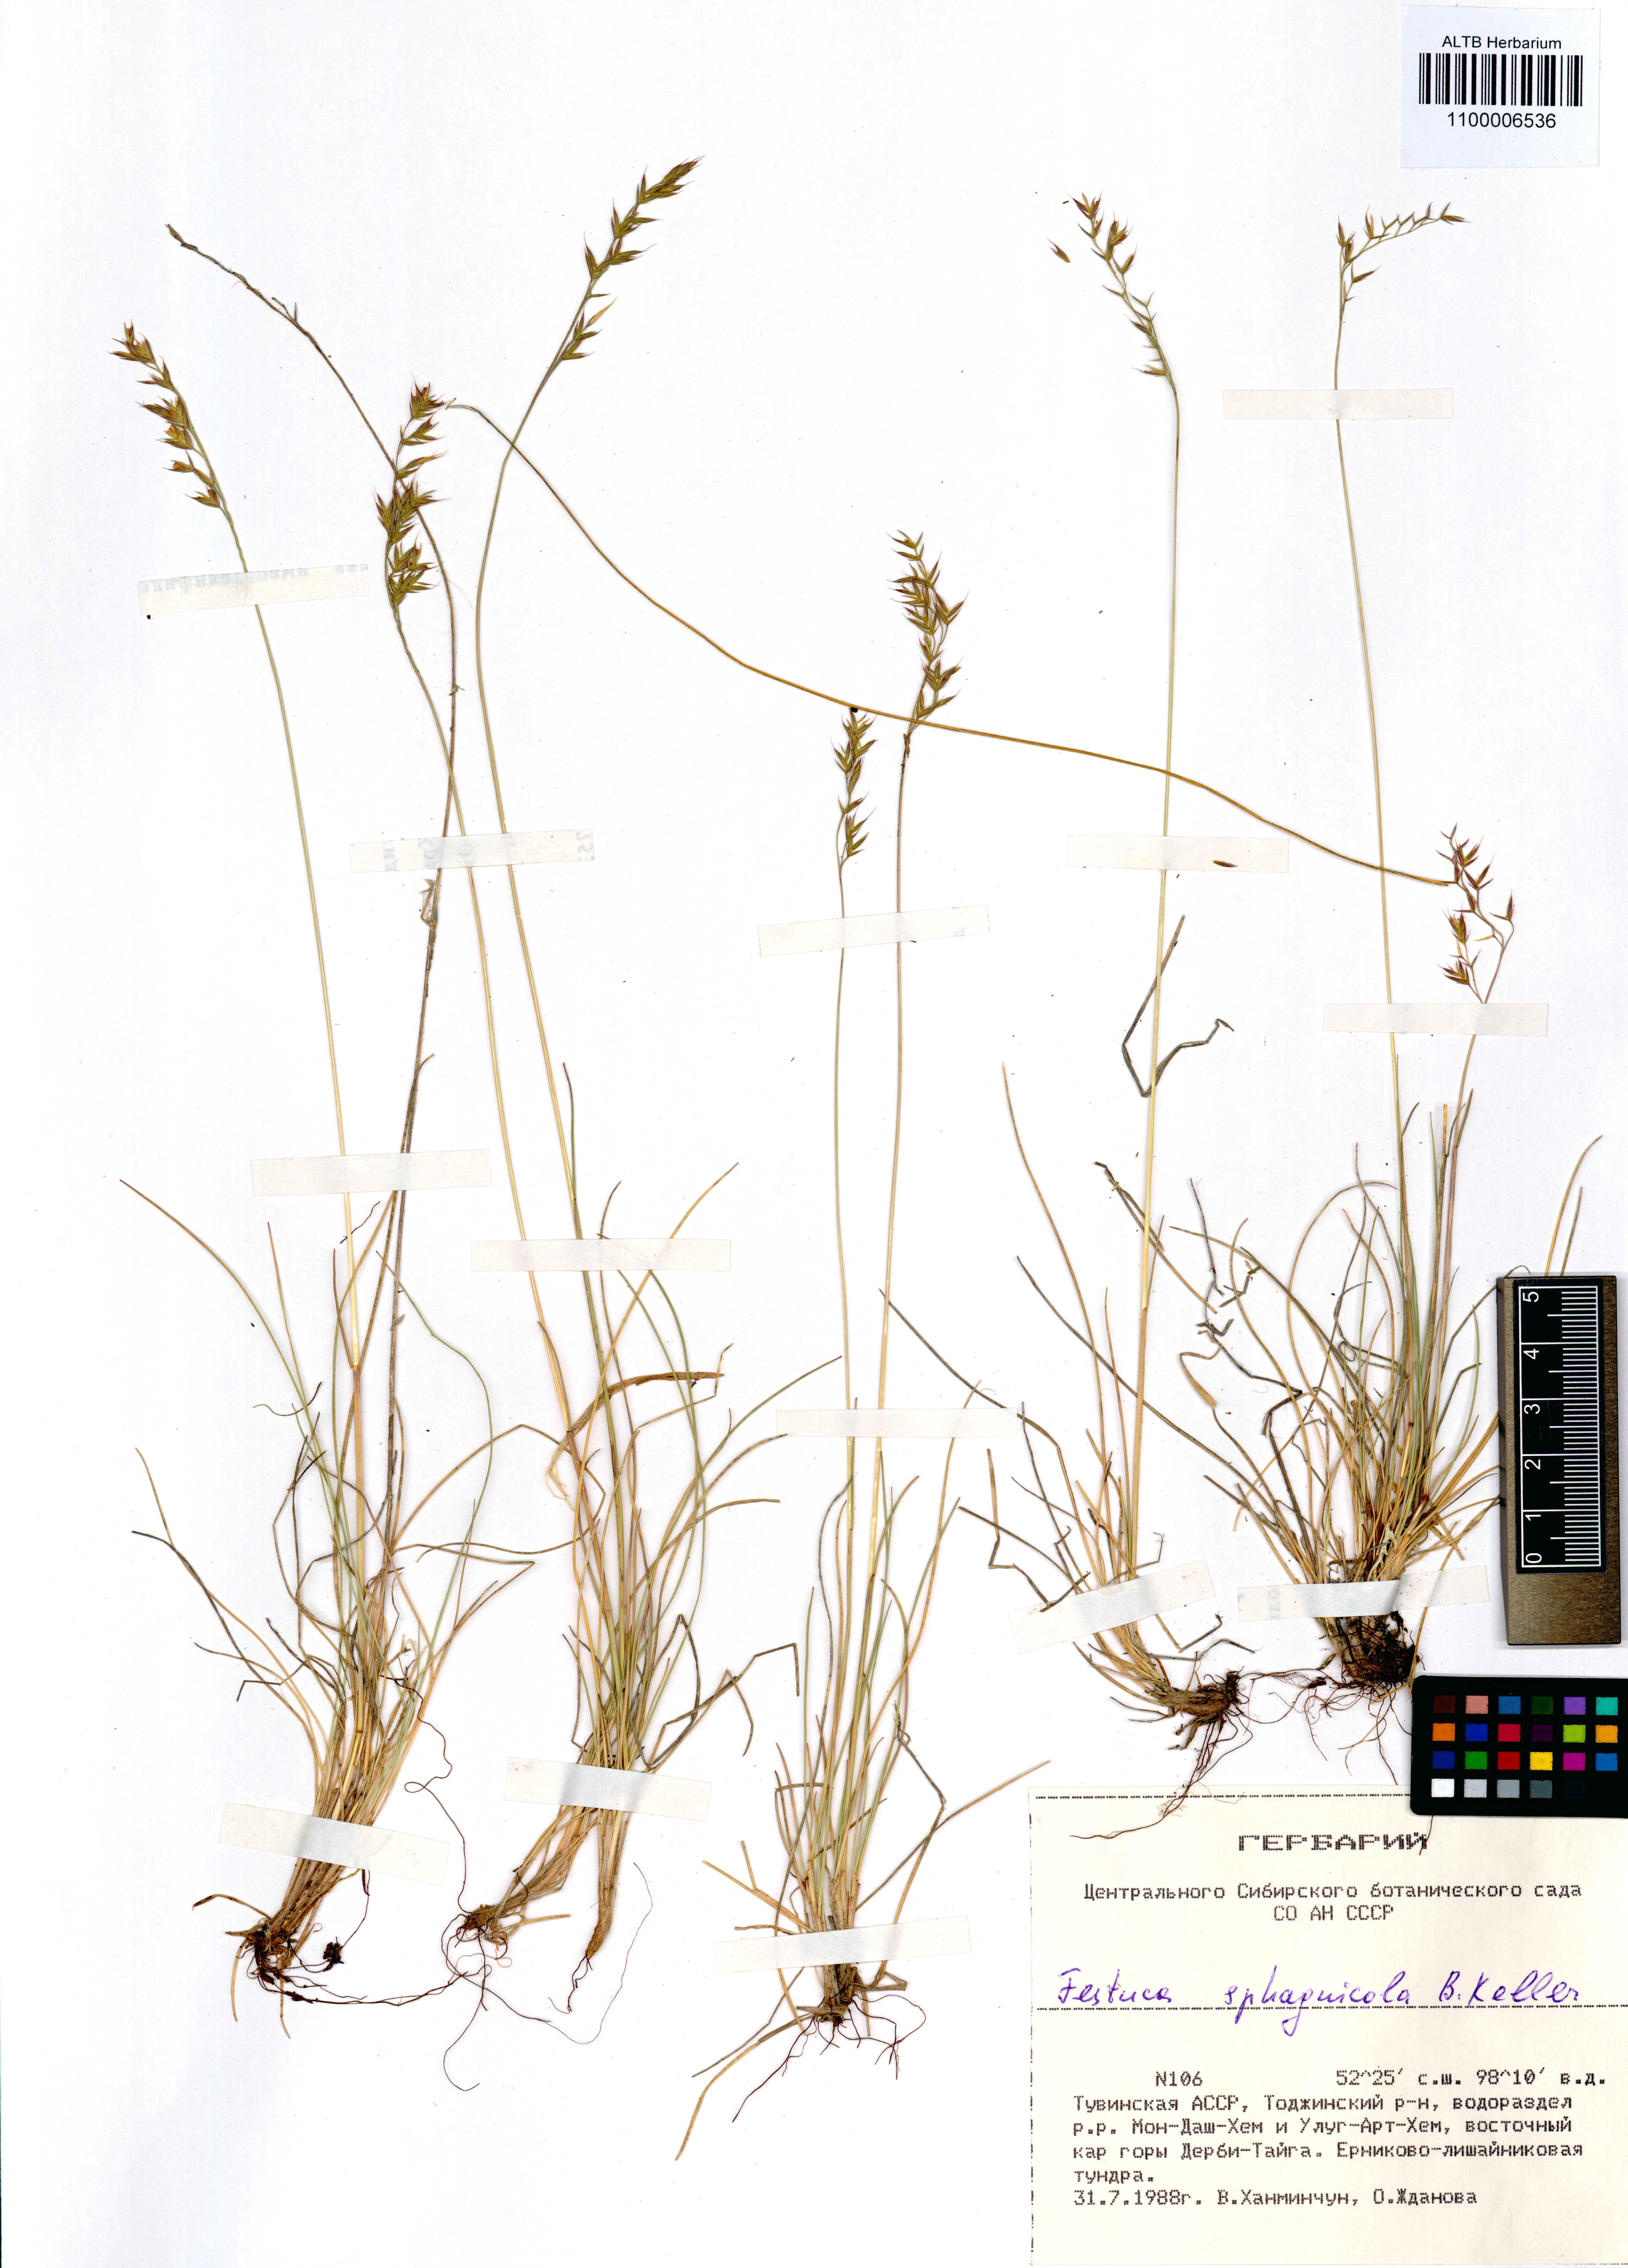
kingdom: Plantae
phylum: Tracheophyta
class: Liliopsida
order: Poales
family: Poaceae
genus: Festuca
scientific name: Festuca
